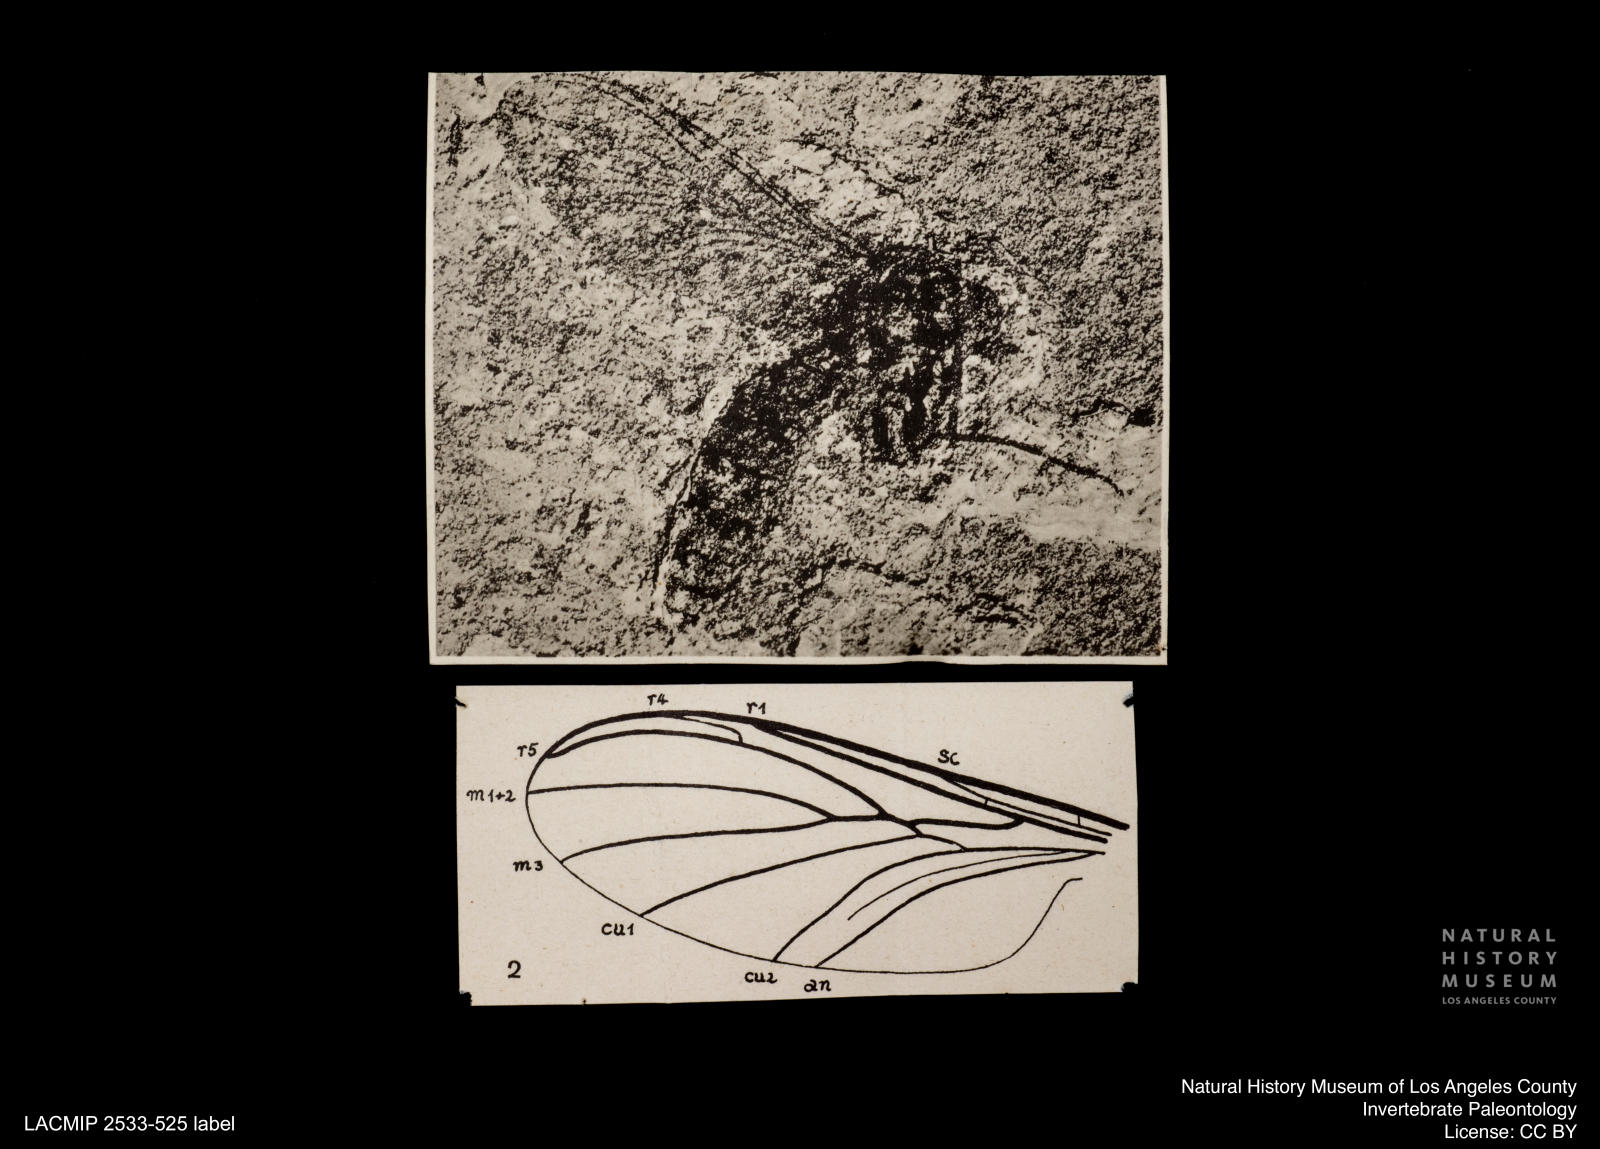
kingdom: Animalia
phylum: Arthropoda
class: Insecta
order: Diptera
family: Keroplatidae
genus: Macrocera
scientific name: Macrocera umbonata
